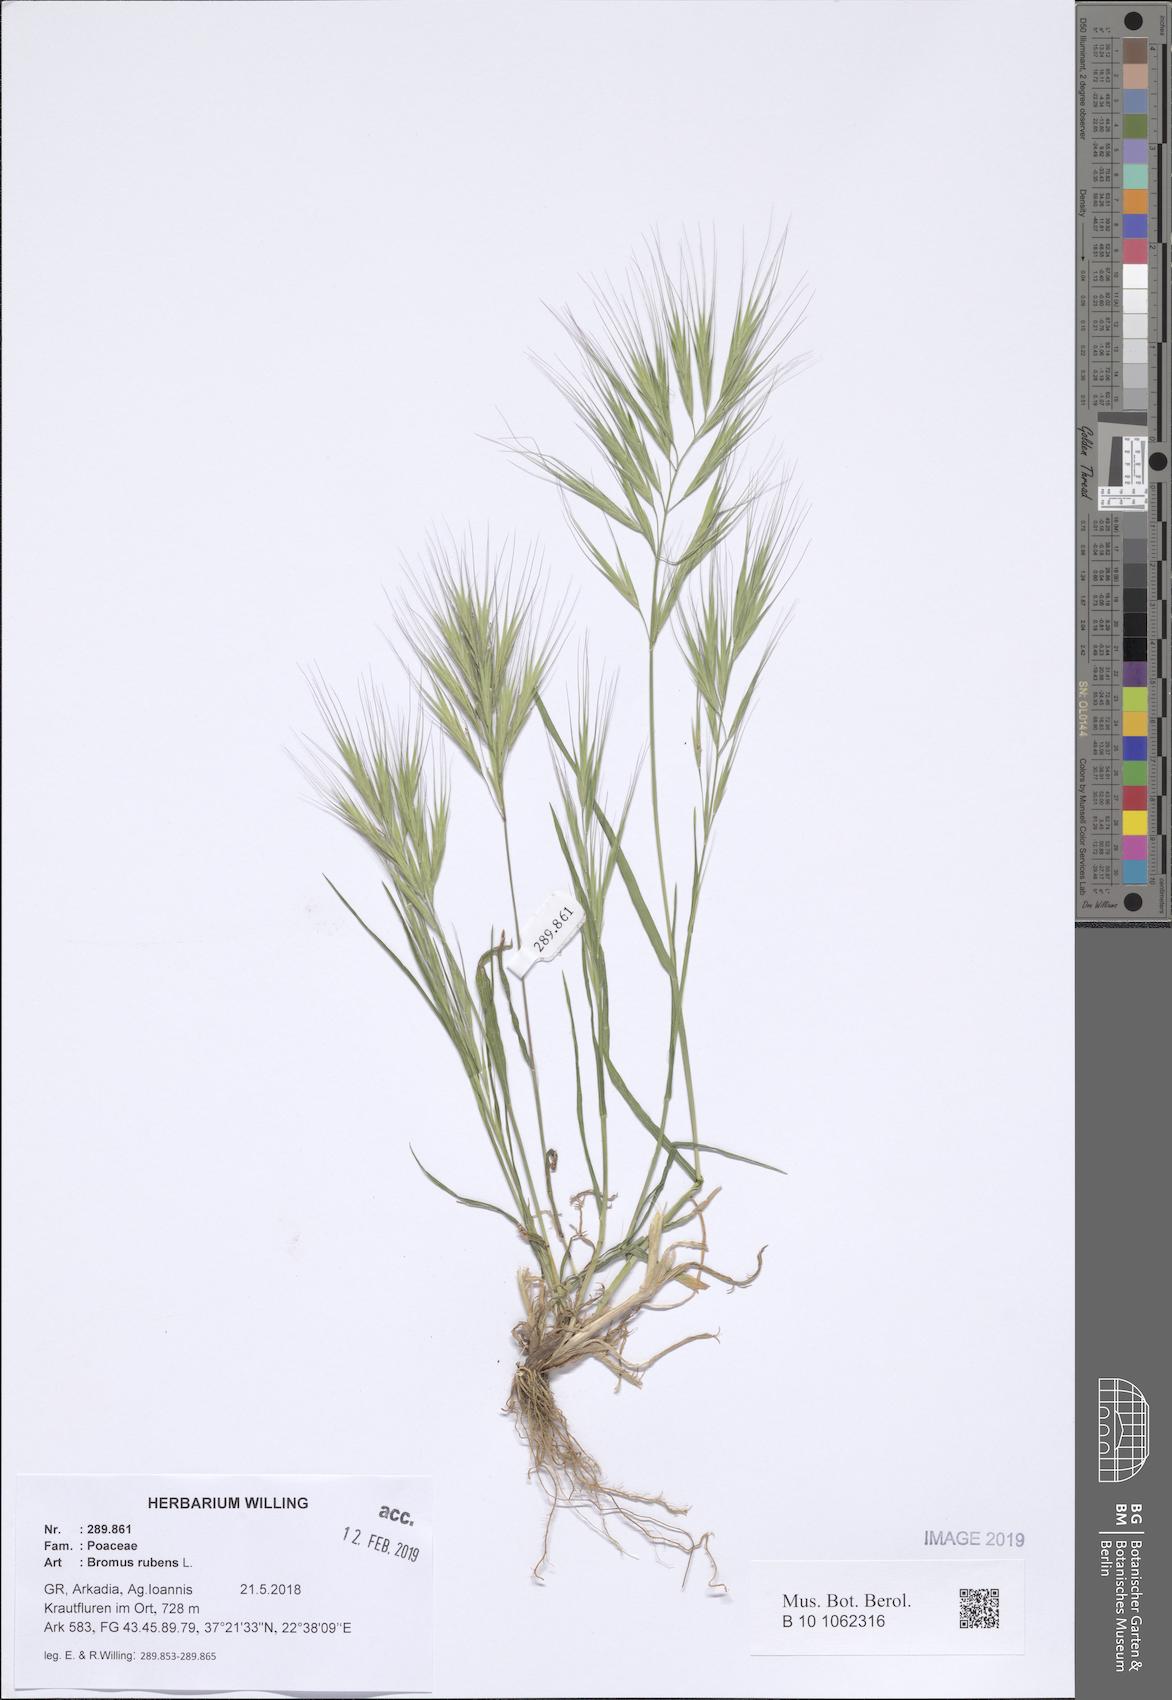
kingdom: Plantae
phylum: Tracheophyta
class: Liliopsida
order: Poales
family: Poaceae
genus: Bromus
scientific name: Bromus rubens
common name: Red brome
